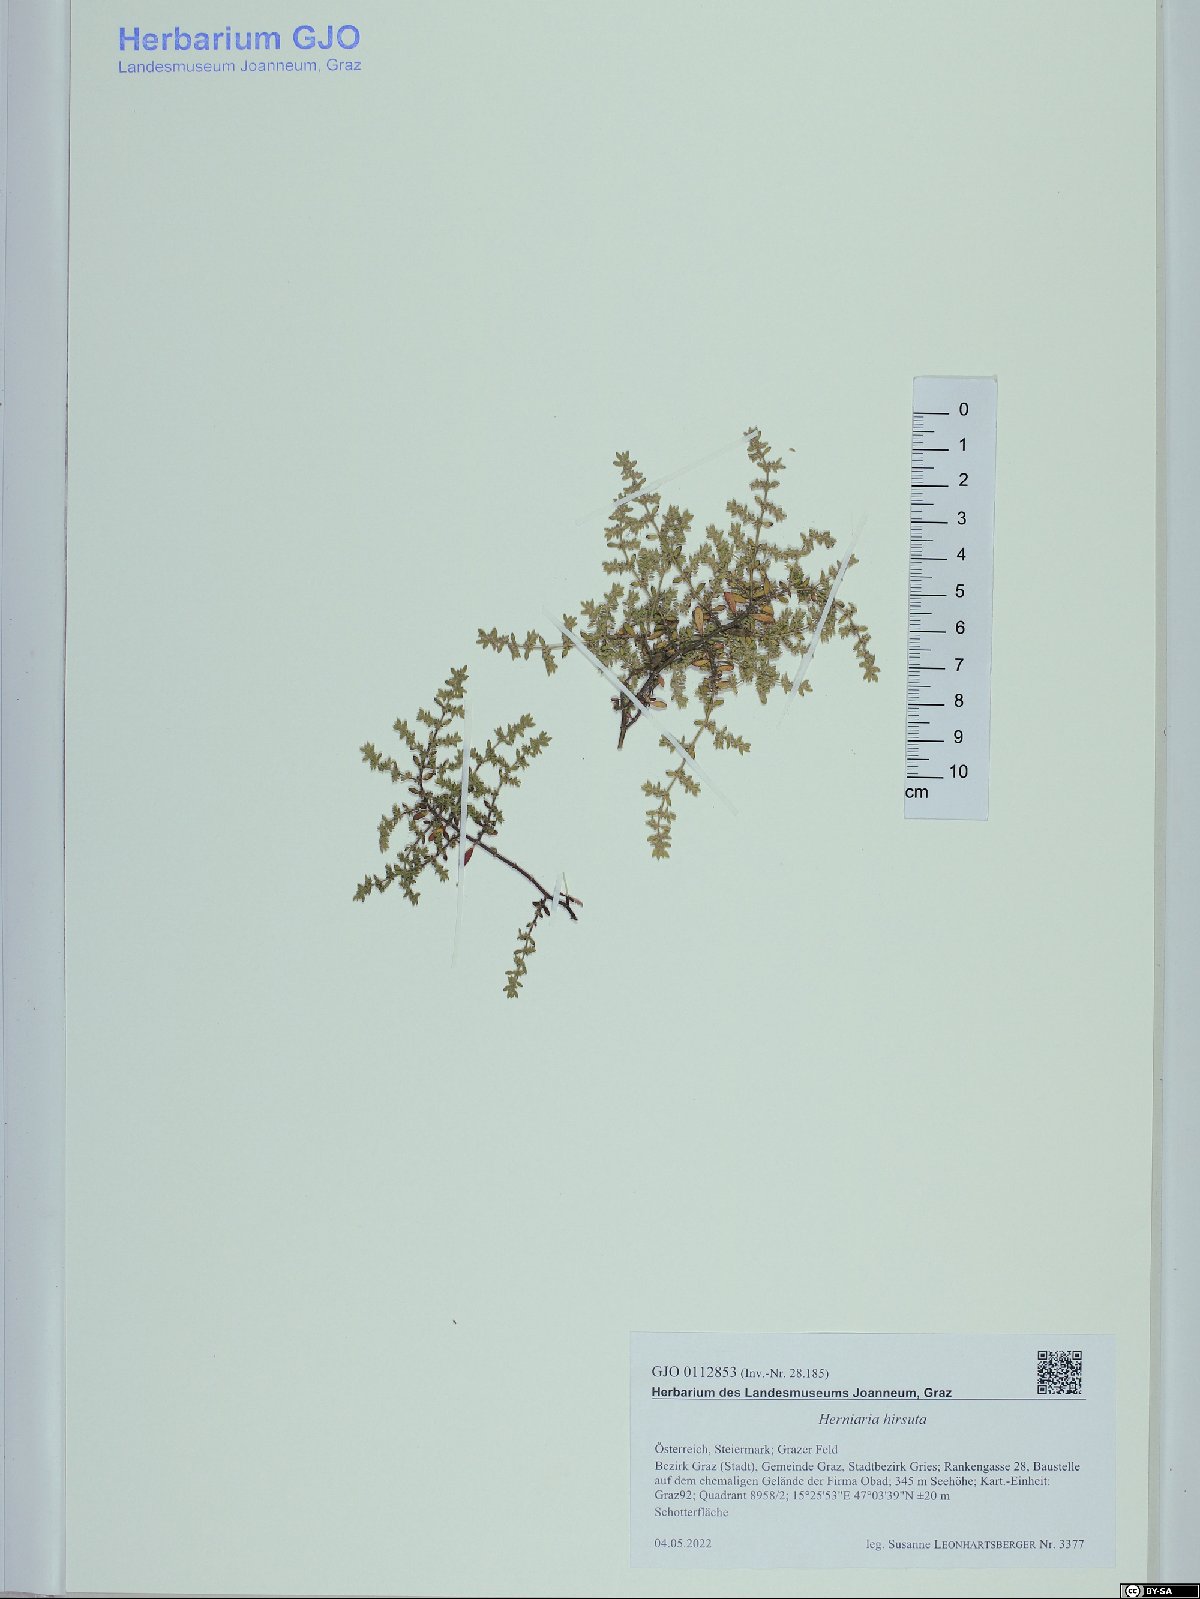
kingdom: Plantae
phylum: Tracheophyta
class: Magnoliopsida
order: Caryophyllales
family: Caryophyllaceae
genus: Herniaria
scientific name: Herniaria hirsuta
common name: Hairy rupturewort
